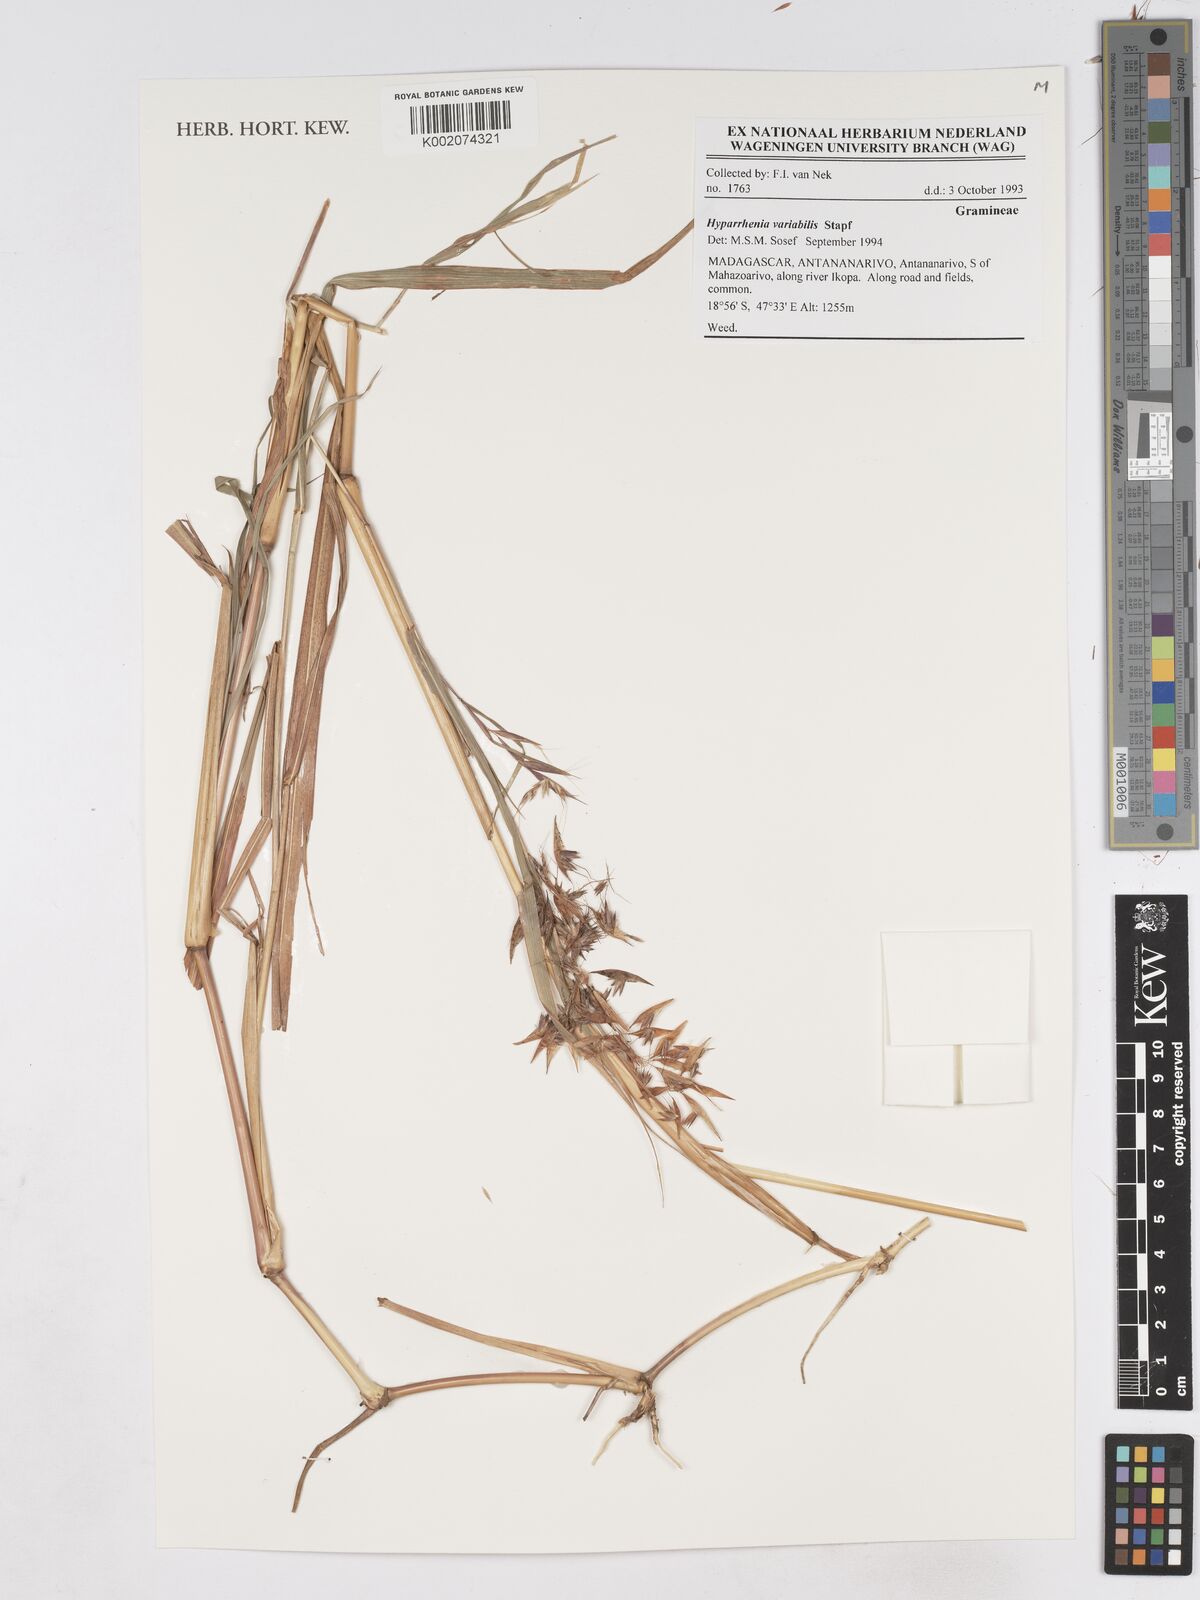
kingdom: Plantae
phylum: Tracheophyta
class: Liliopsida
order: Poales
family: Poaceae
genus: Hyparrhenia
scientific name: Hyparrhenia variabilis
